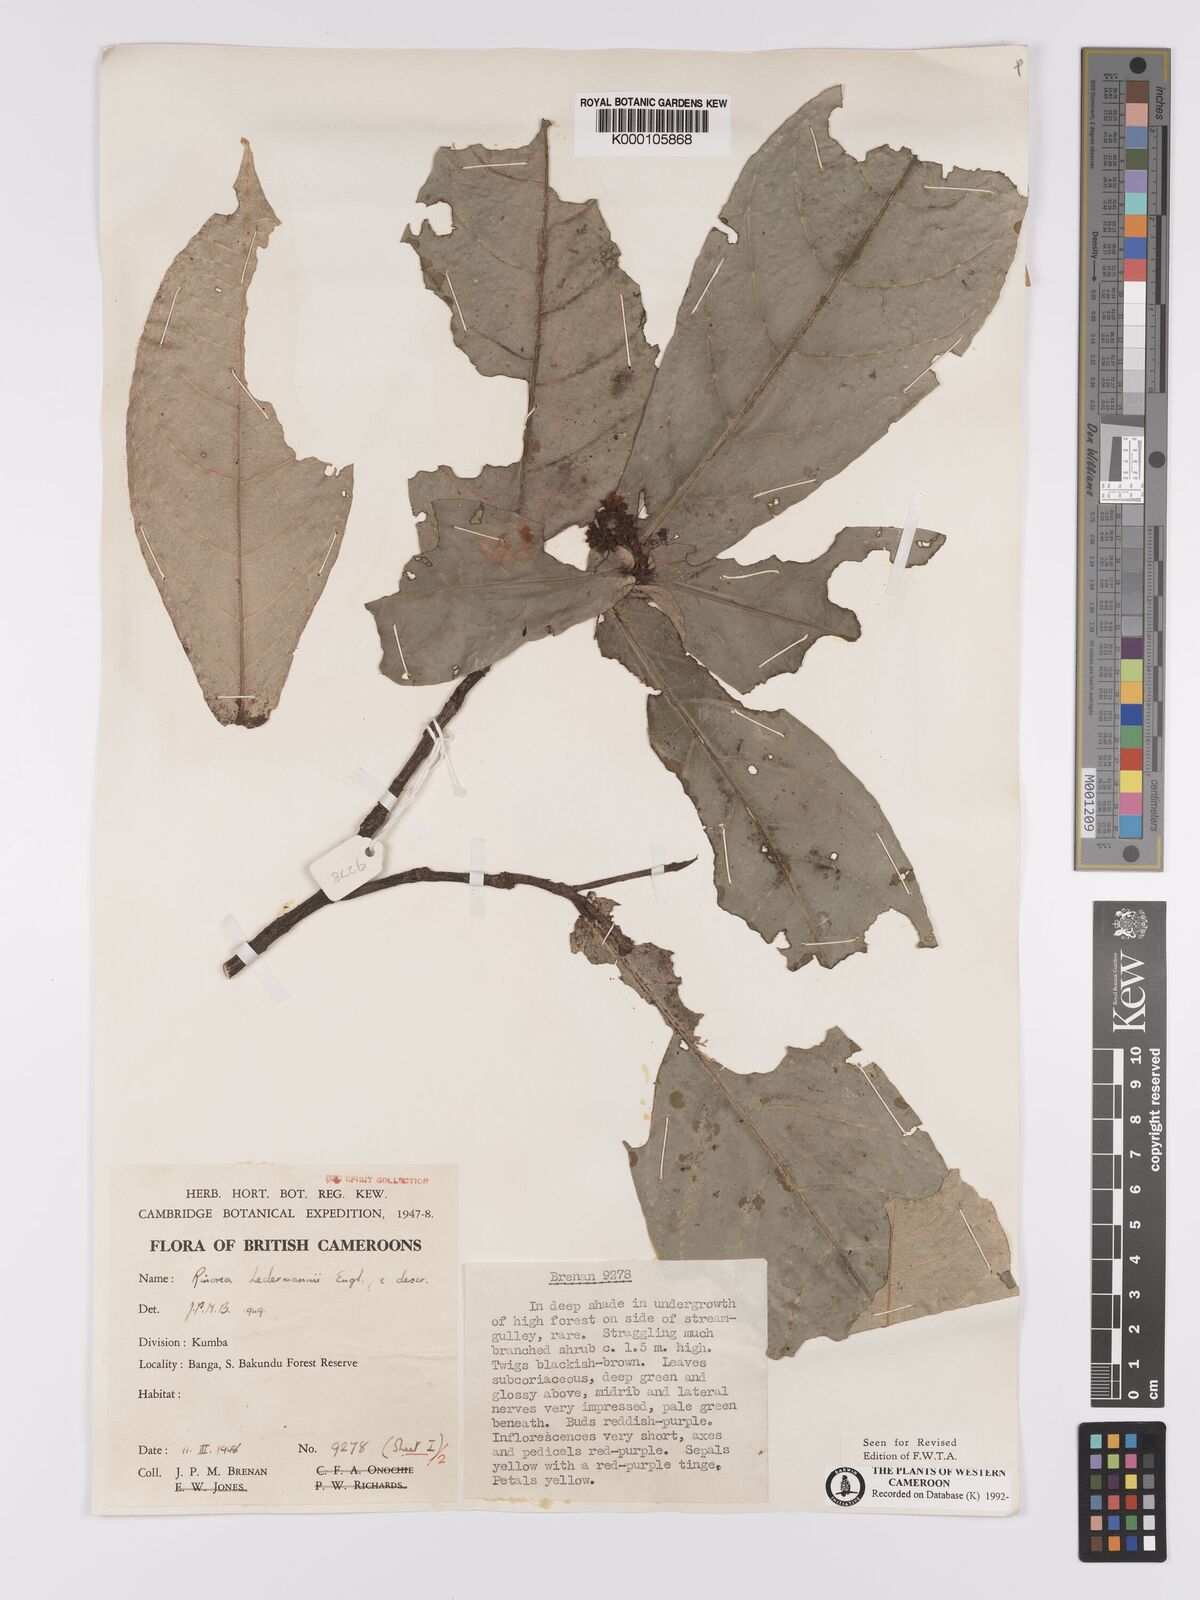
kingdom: Plantae
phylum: Tracheophyta
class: Magnoliopsida
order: Malpighiales
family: Violaceae
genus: Rinorea
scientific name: Rinorea ledermannii
